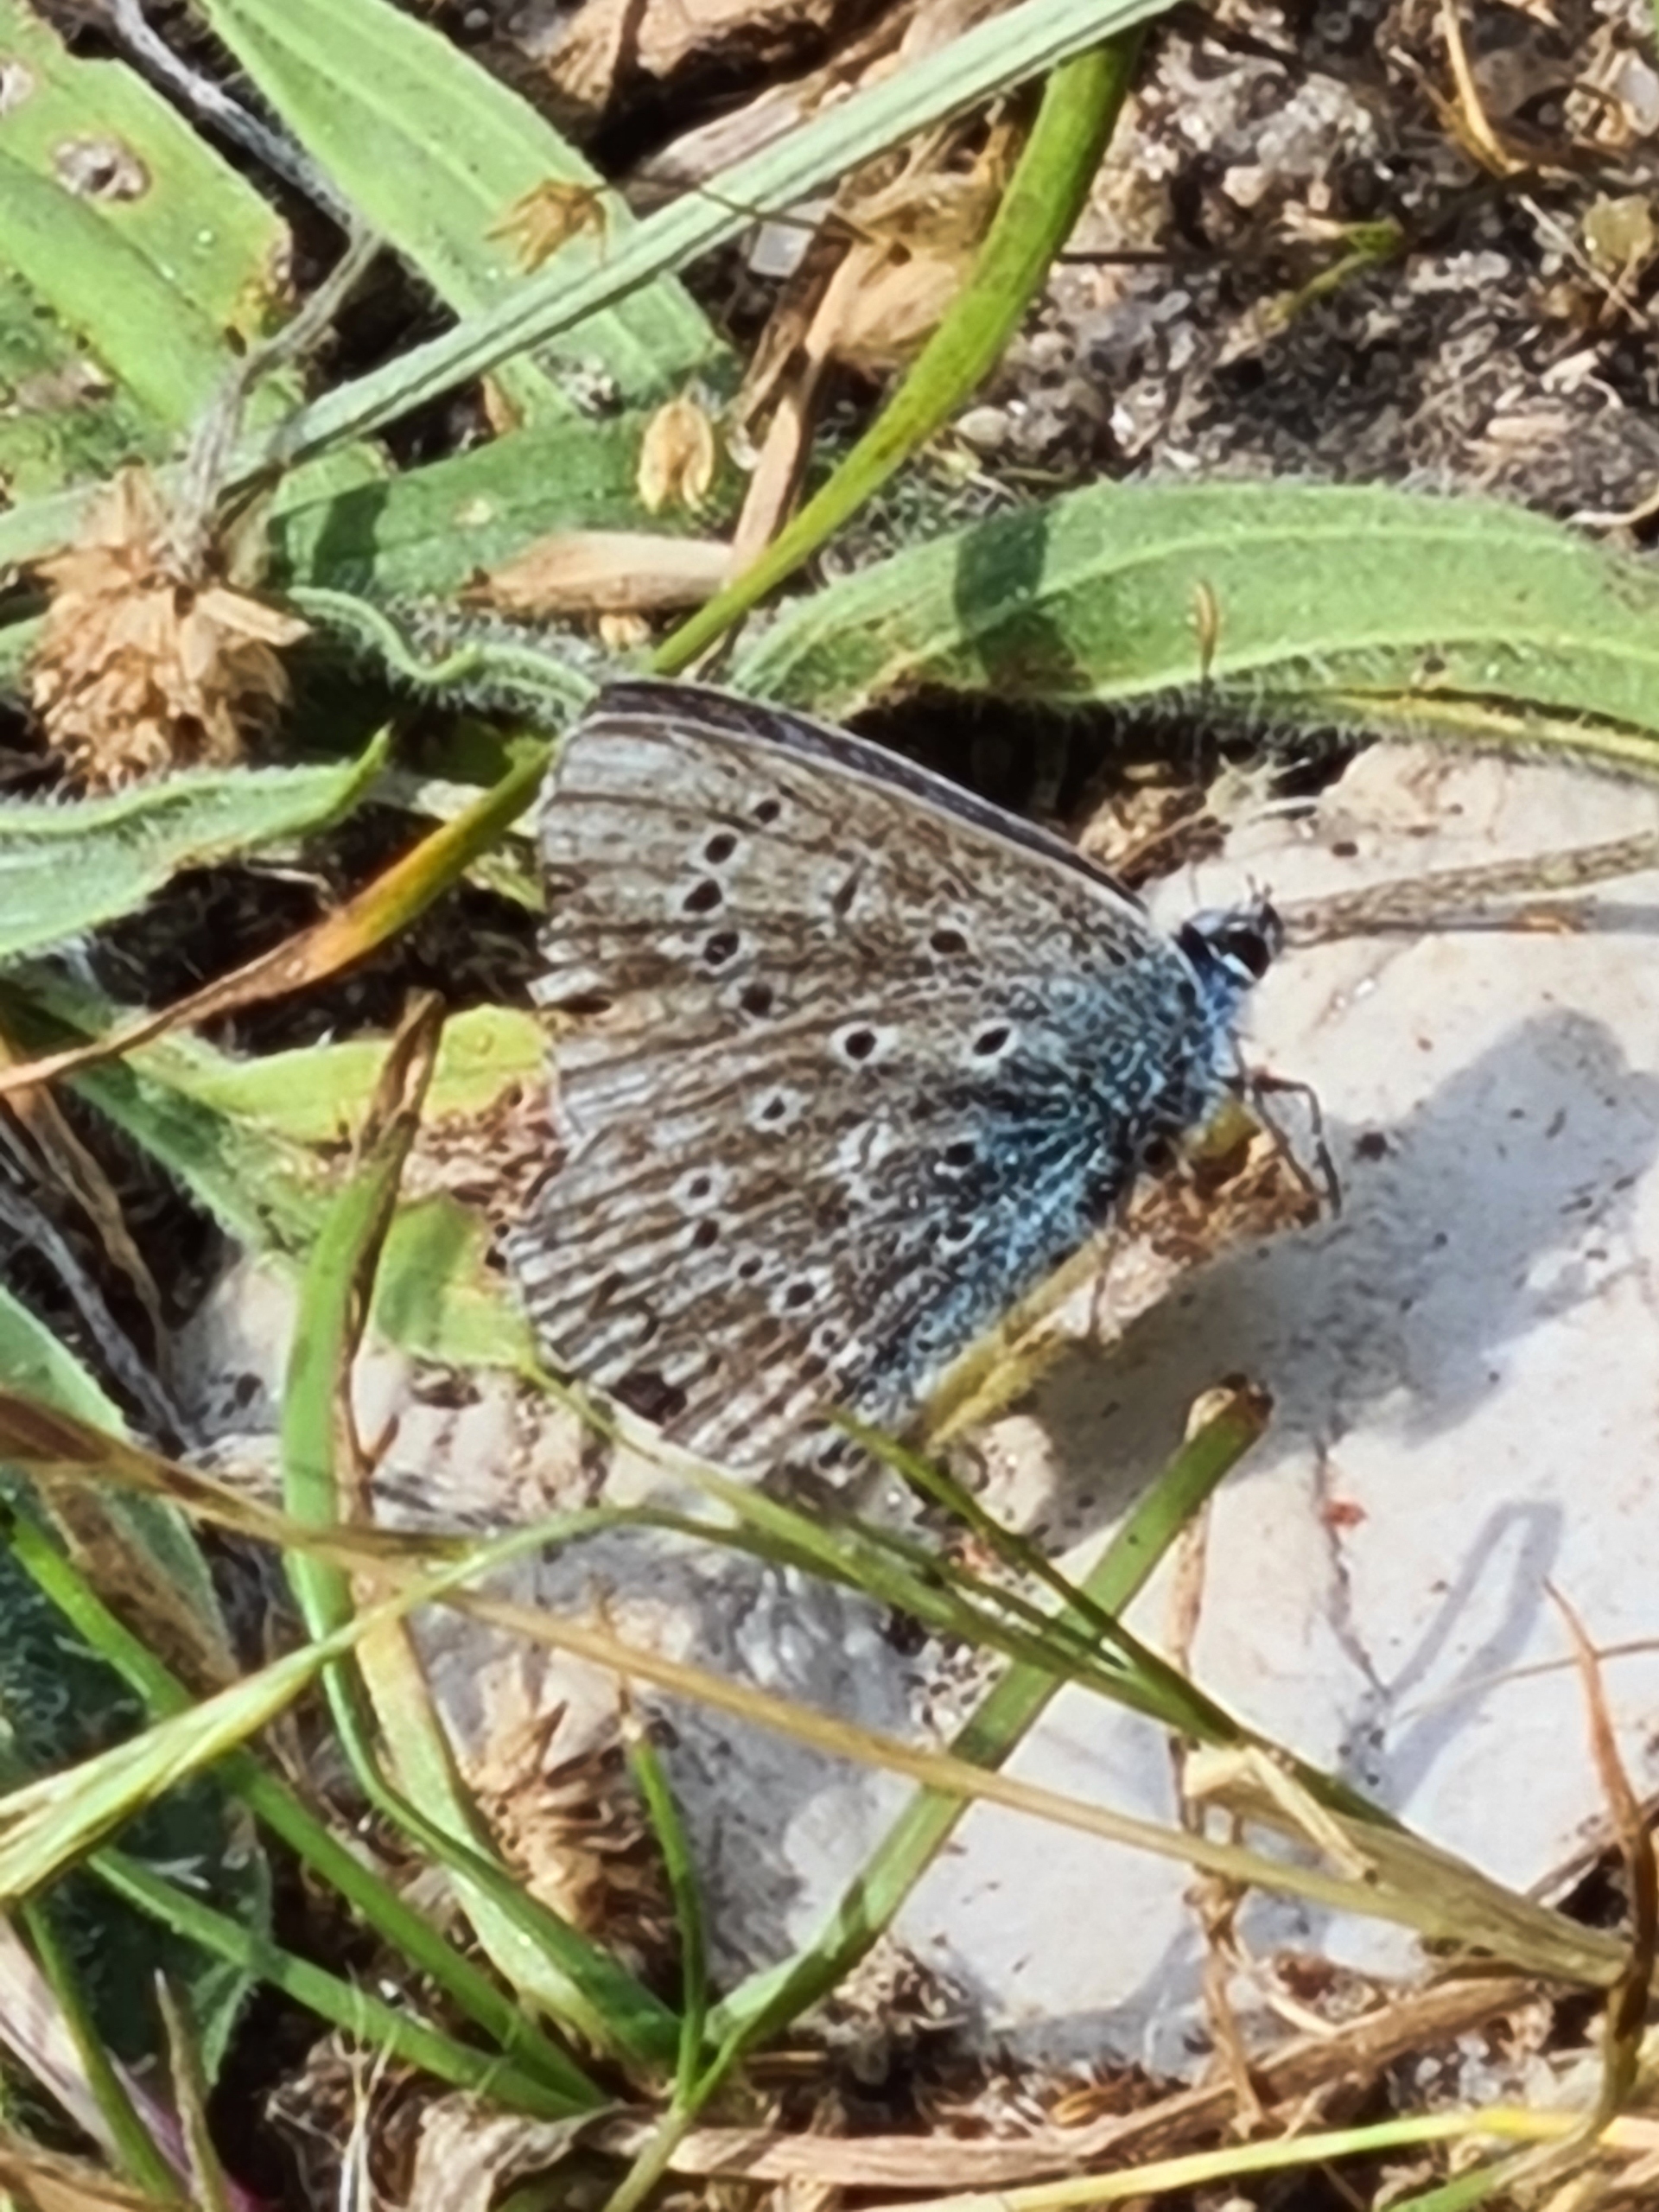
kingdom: Animalia
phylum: Arthropoda
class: Insecta
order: Lepidoptera
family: Lycaenidae
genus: Polyommatus
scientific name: Polyommatus icarus
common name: Almindelig blåfugl
